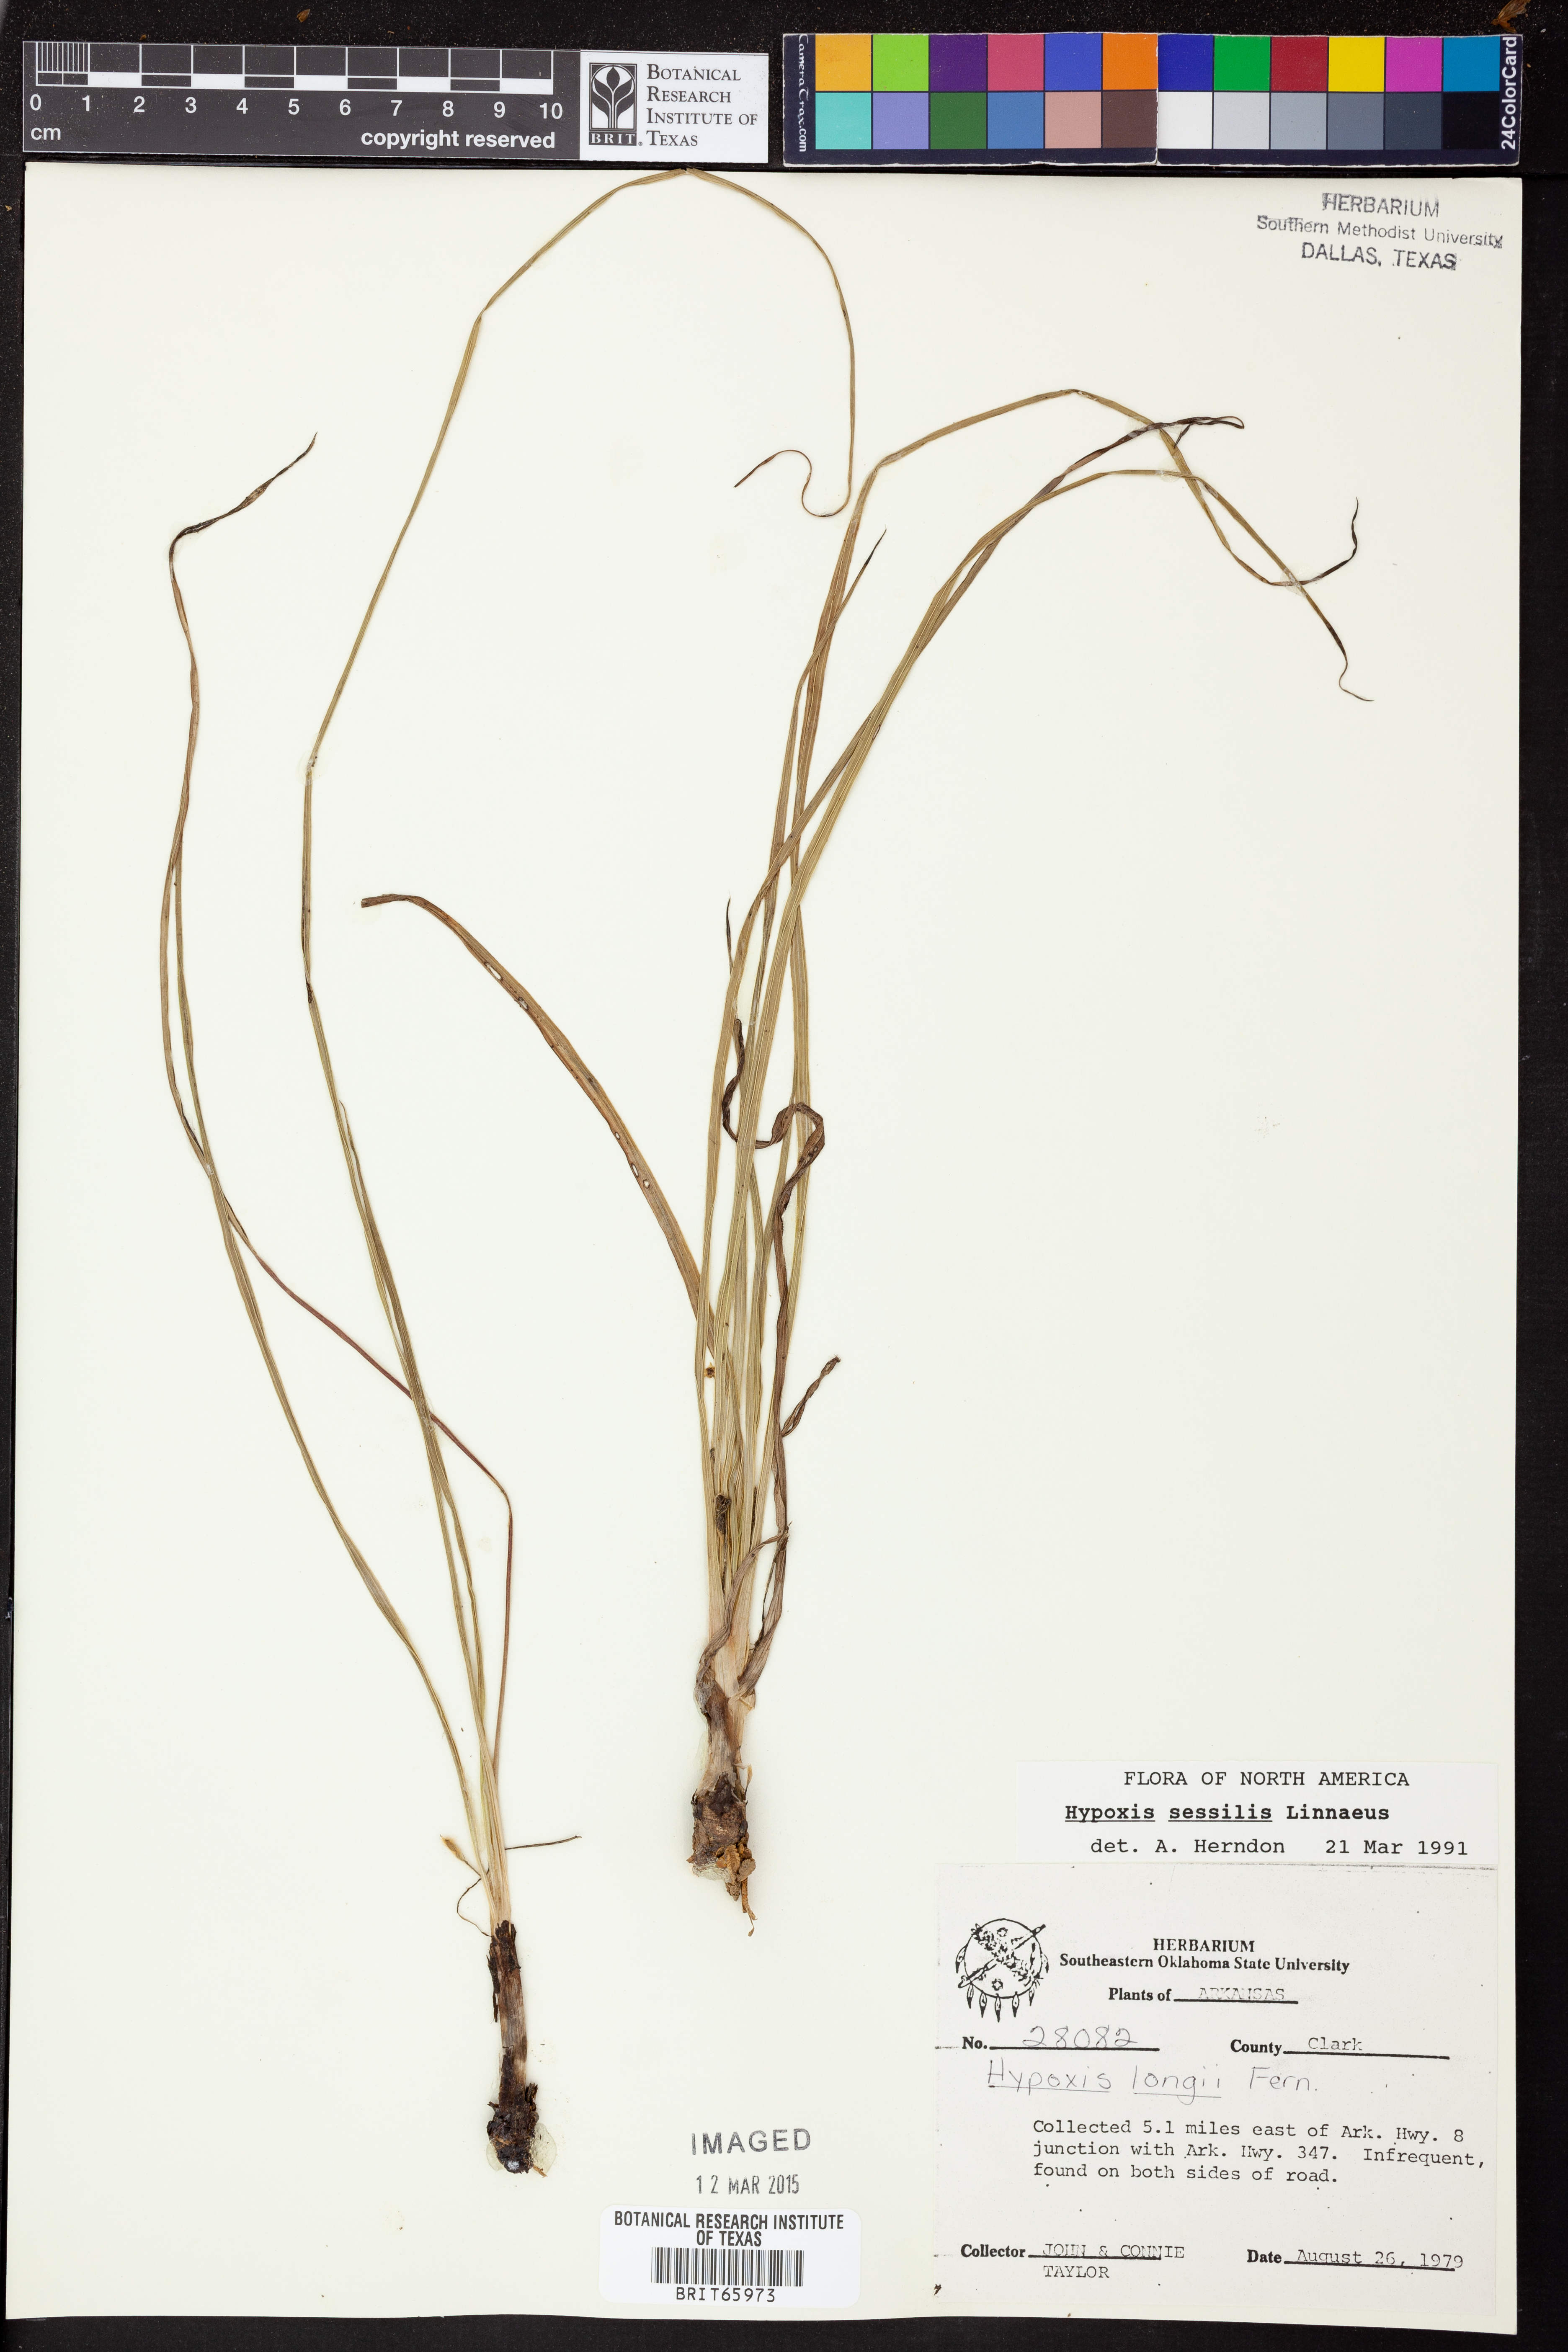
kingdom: Plantae
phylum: Tracheophyta
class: Liliopsida
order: Asparagales
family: Hypoxidaceae
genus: Hypoxis
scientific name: Hypoxis sessilis
